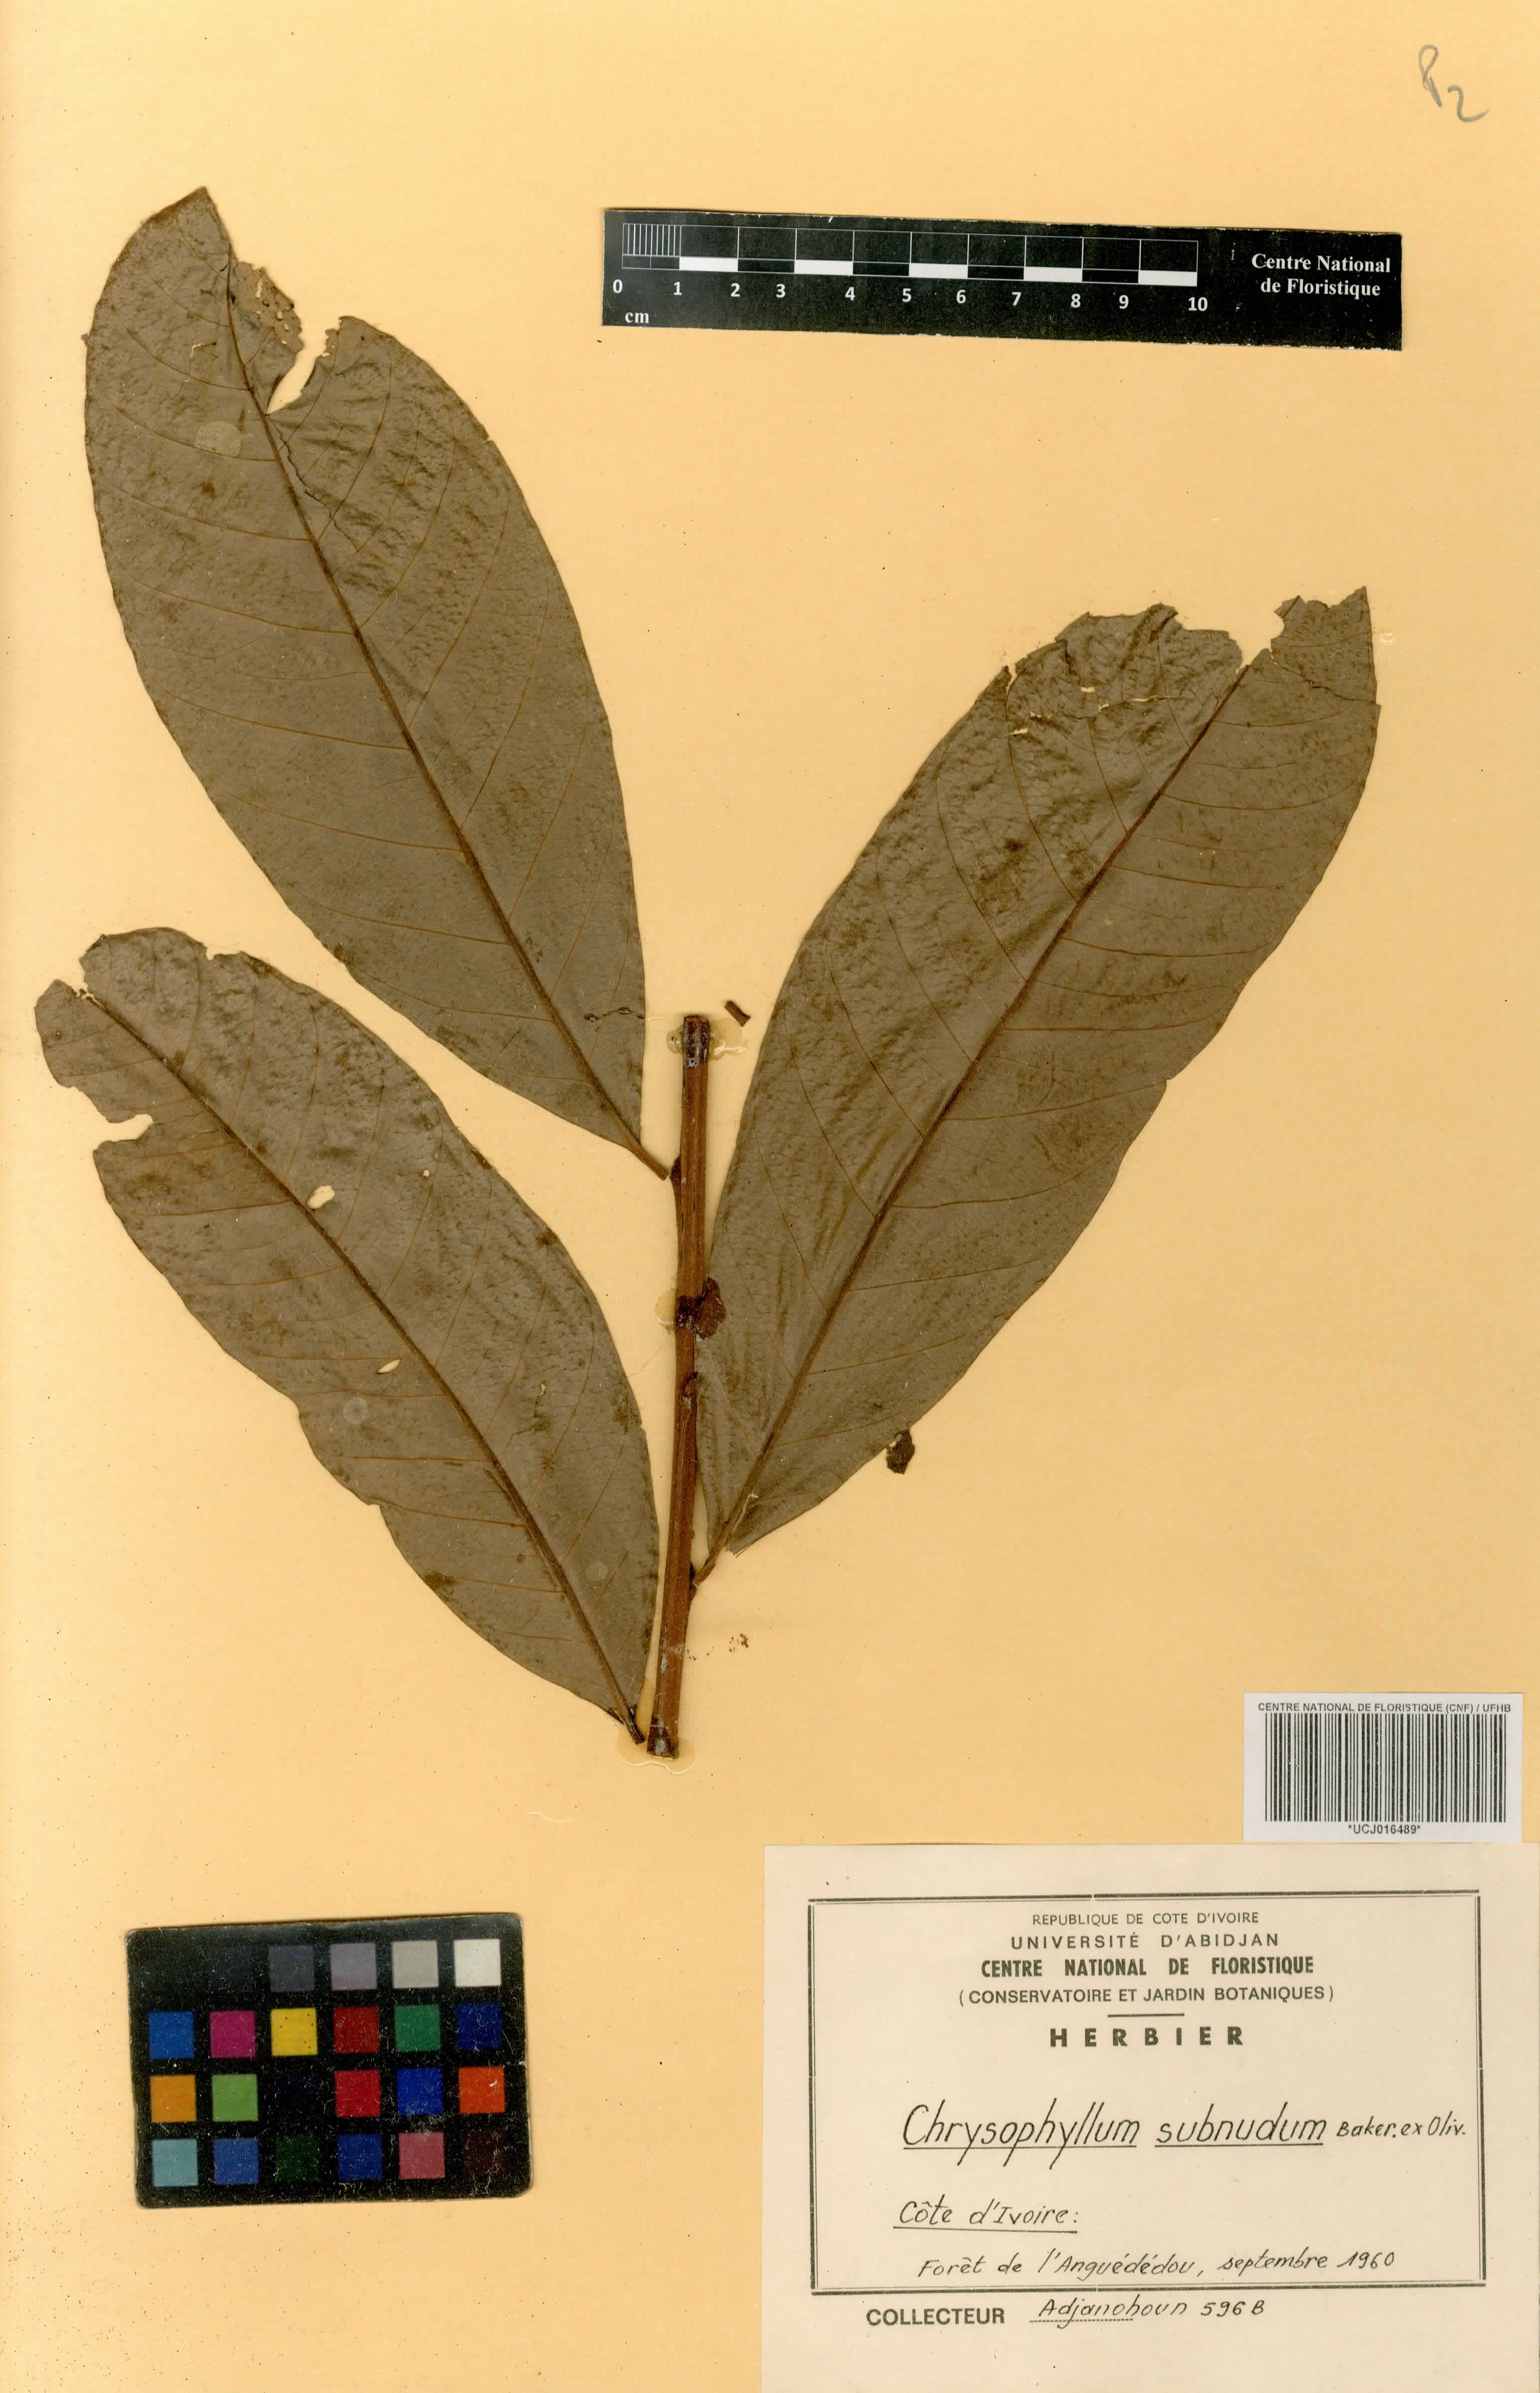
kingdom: Plantae
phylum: Tracheophyta
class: Magnoliopsida
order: Ericales
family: Sapotaceae
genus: Gambeya
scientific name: Gambeya subnuda
